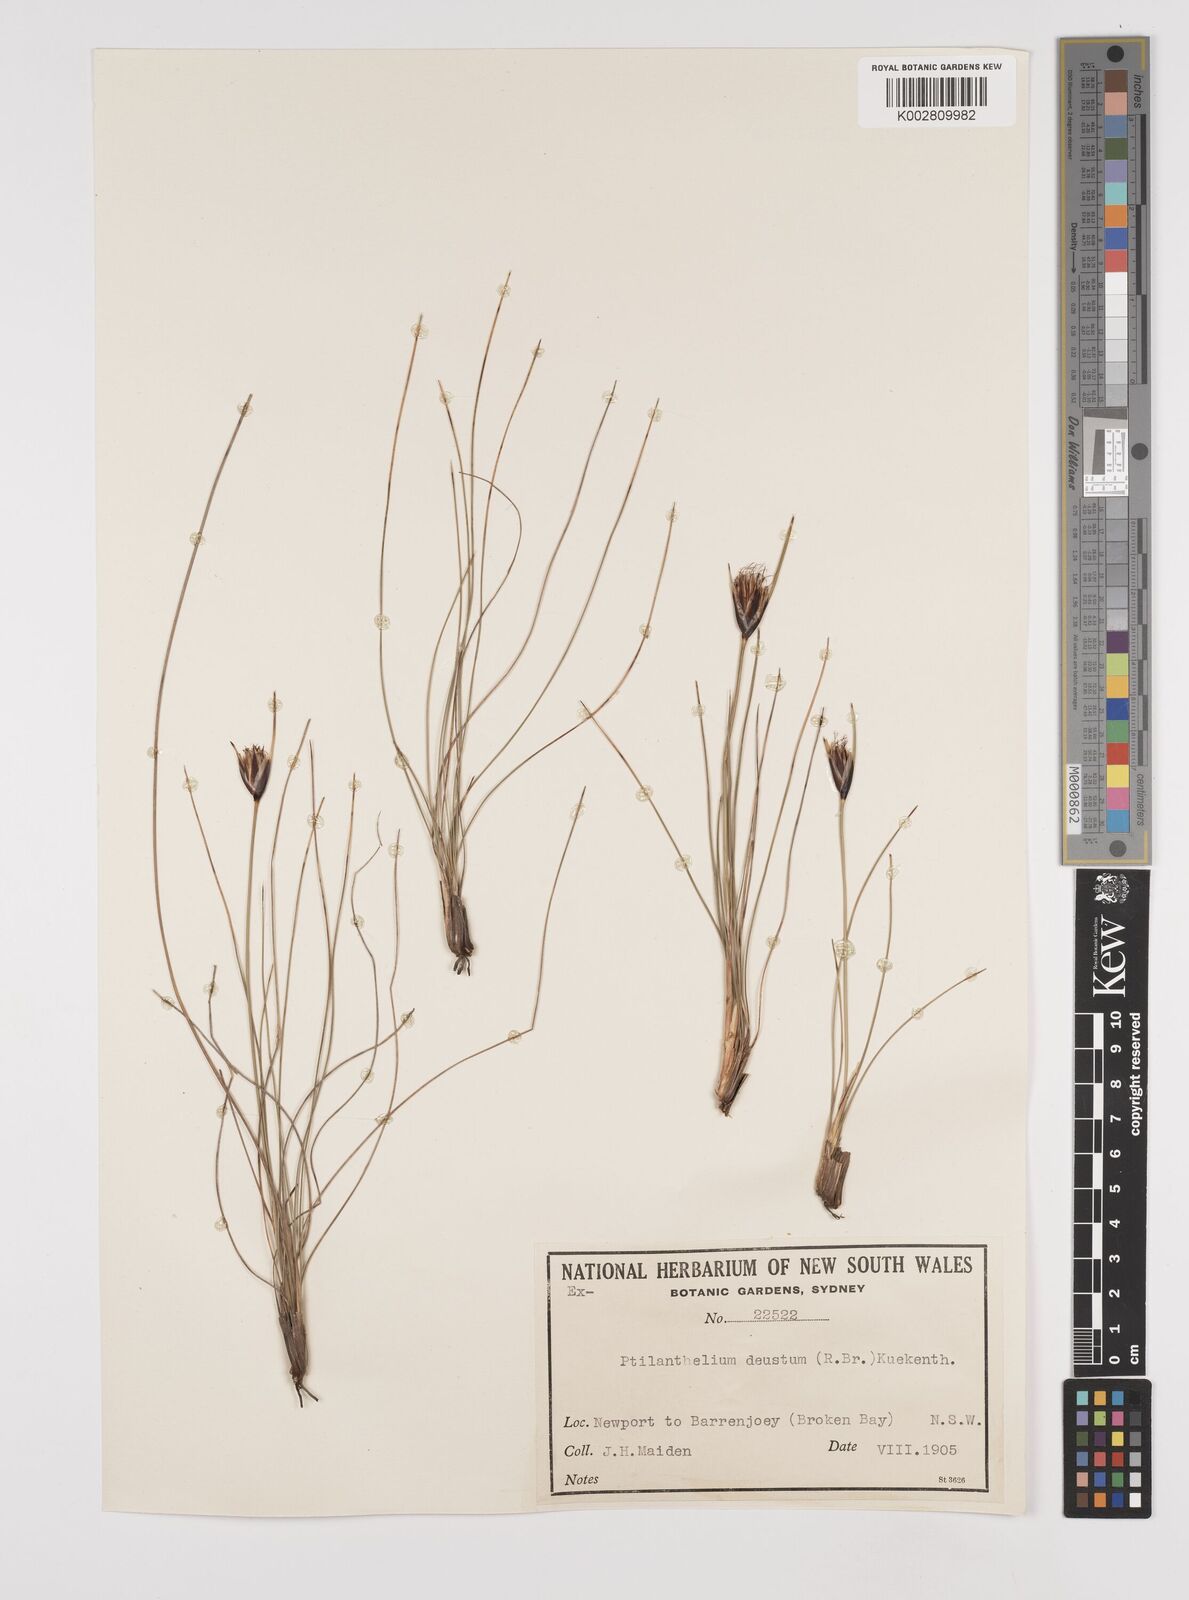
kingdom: Plantae
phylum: Tracheophyta
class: Liliopsida
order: Poales
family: Cyperaceae
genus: Ptilothrix
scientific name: Ptilothrix deusta
